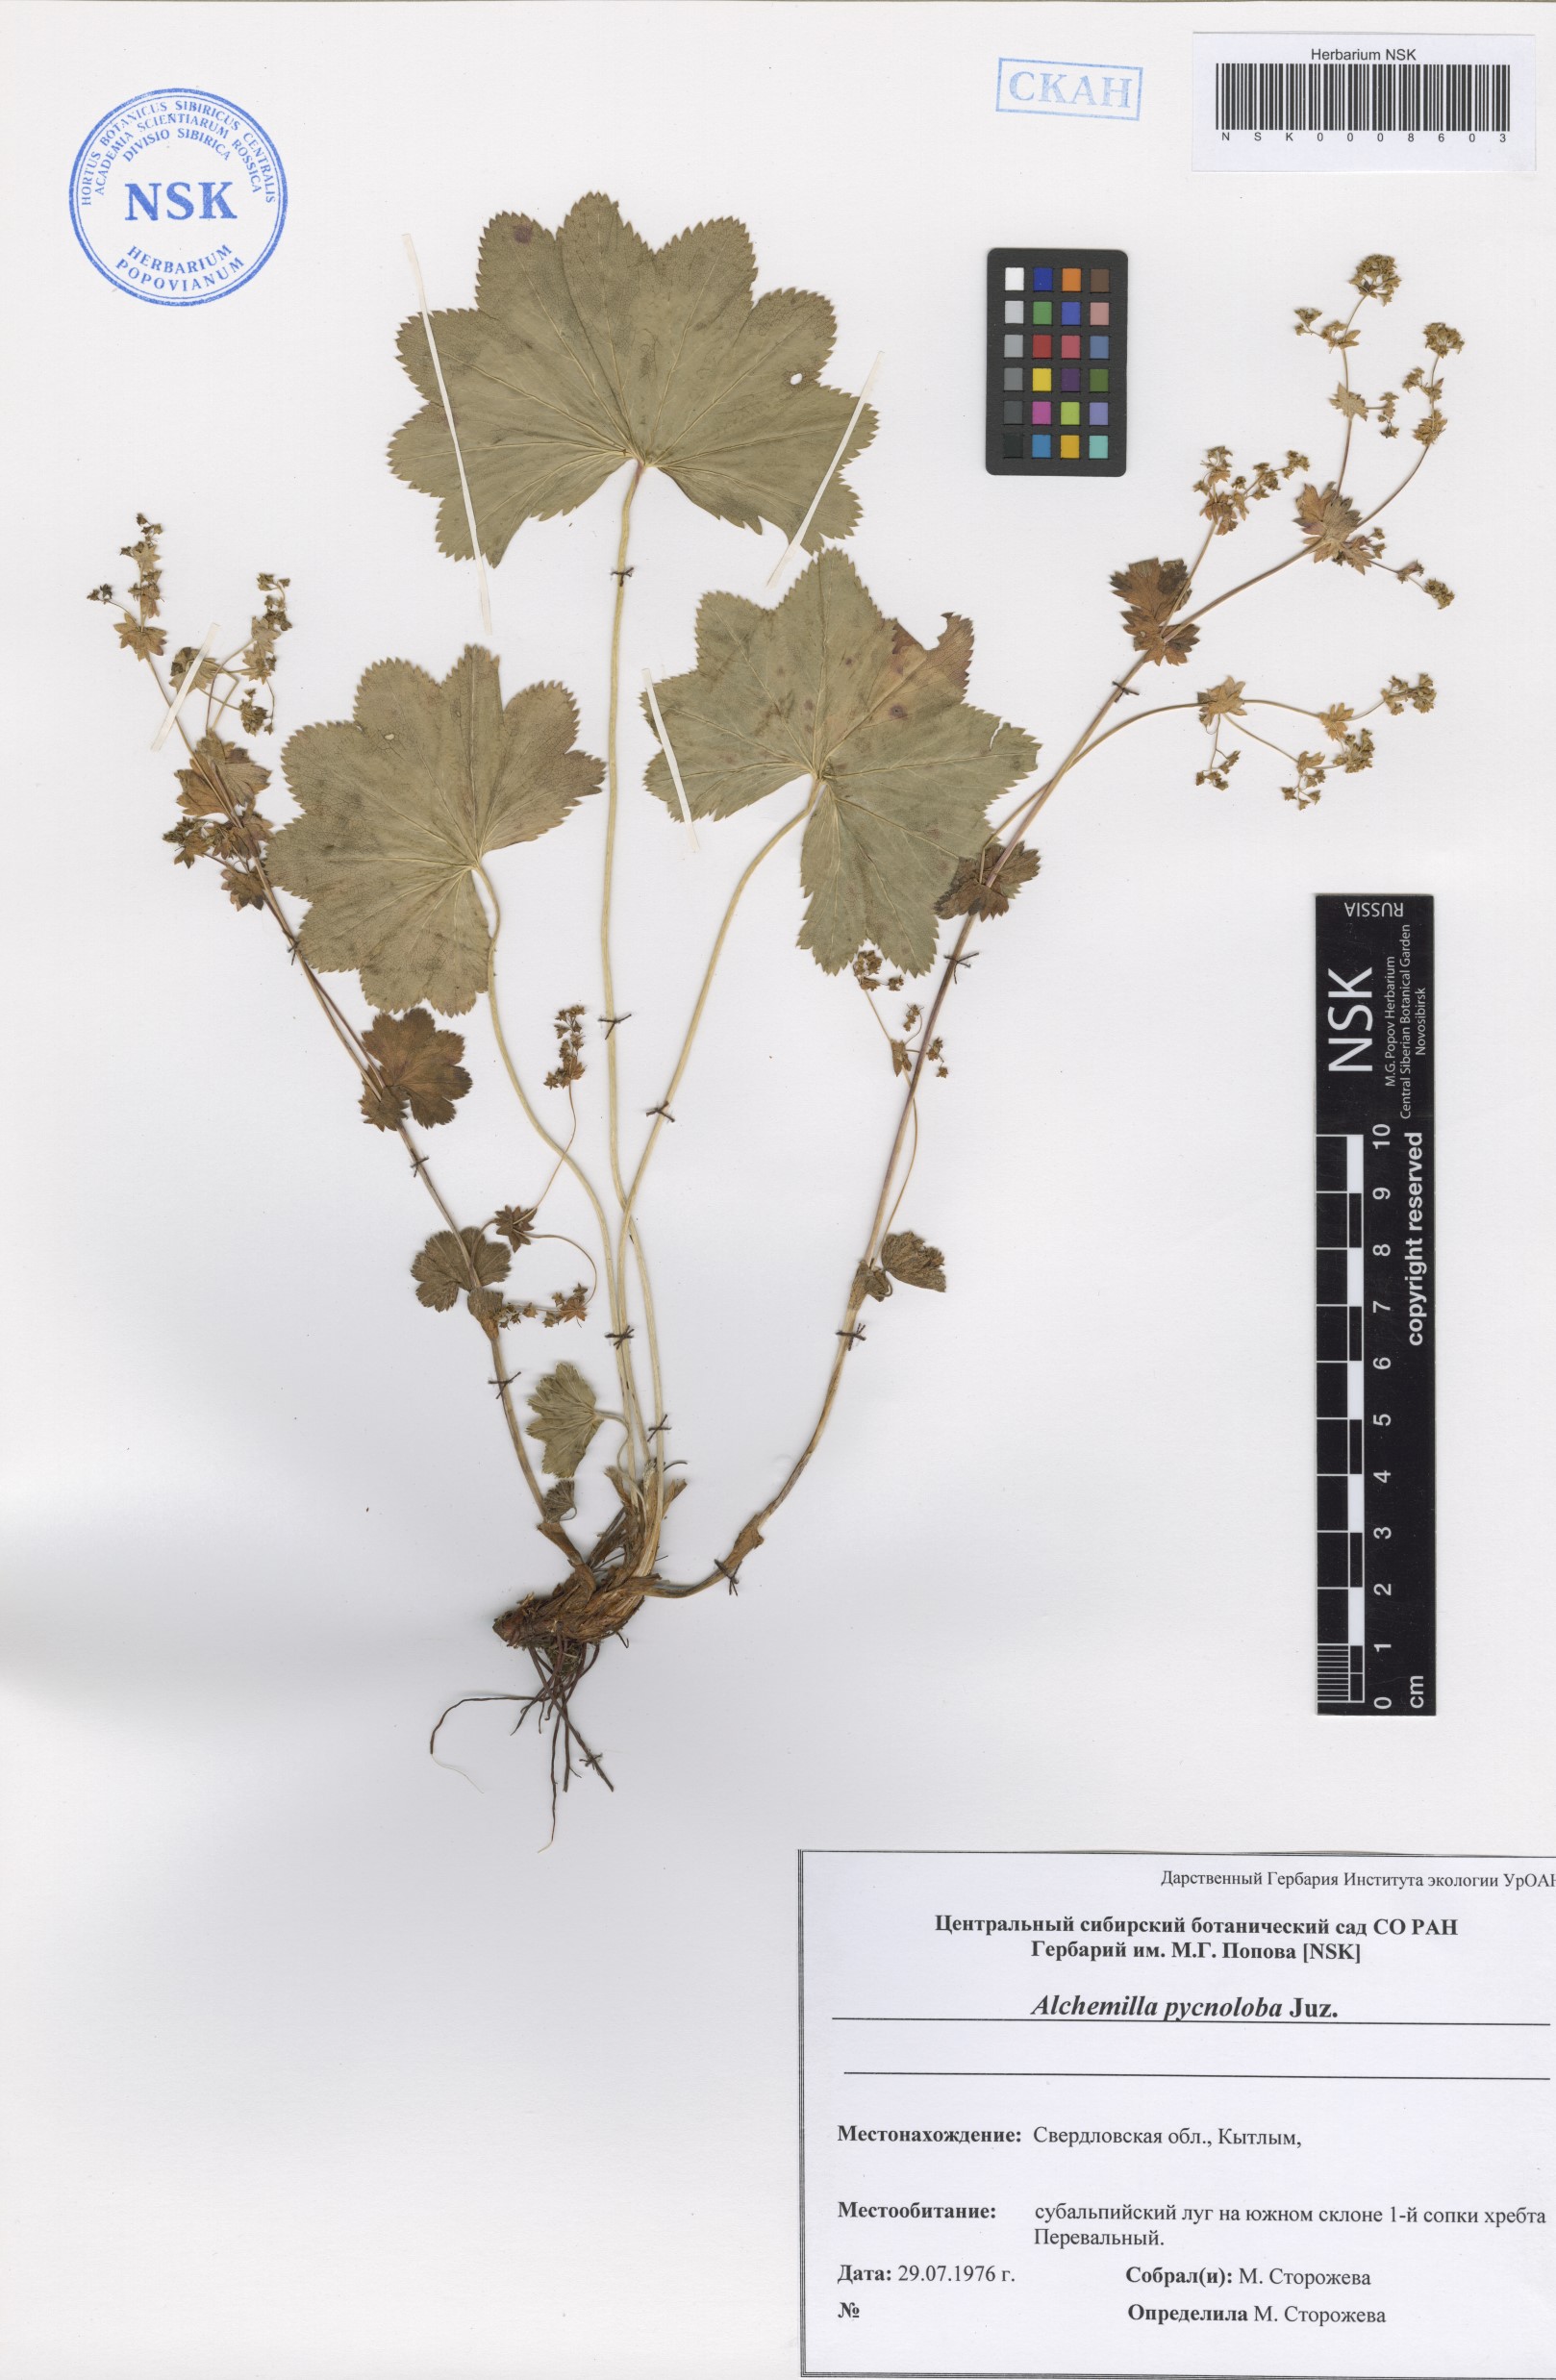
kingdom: Plantae
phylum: Tracheophyta
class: Magnoliopsida
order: Rosales
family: Rosaceae
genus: Alchemilla
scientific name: Alchemilla pycnoloba
